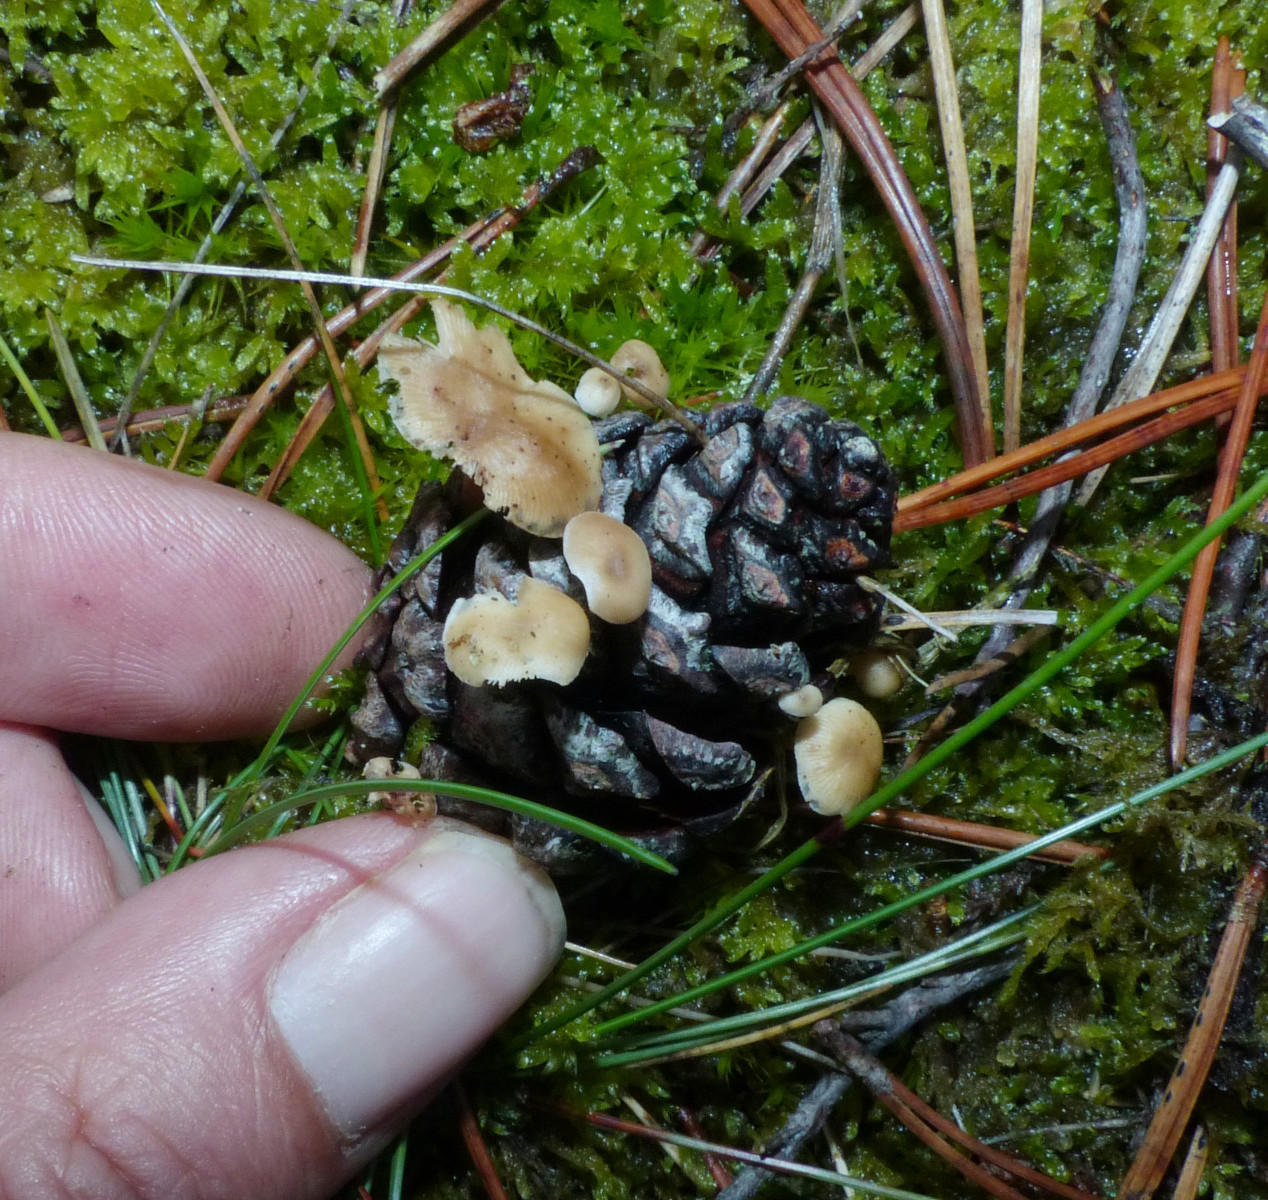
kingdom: Fungi
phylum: Basidiomycota
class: Agaricomycetes
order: Agaricales
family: Marasmiaceae
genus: Baeospora
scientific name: Baeospora myosura
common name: koglebruskhat
